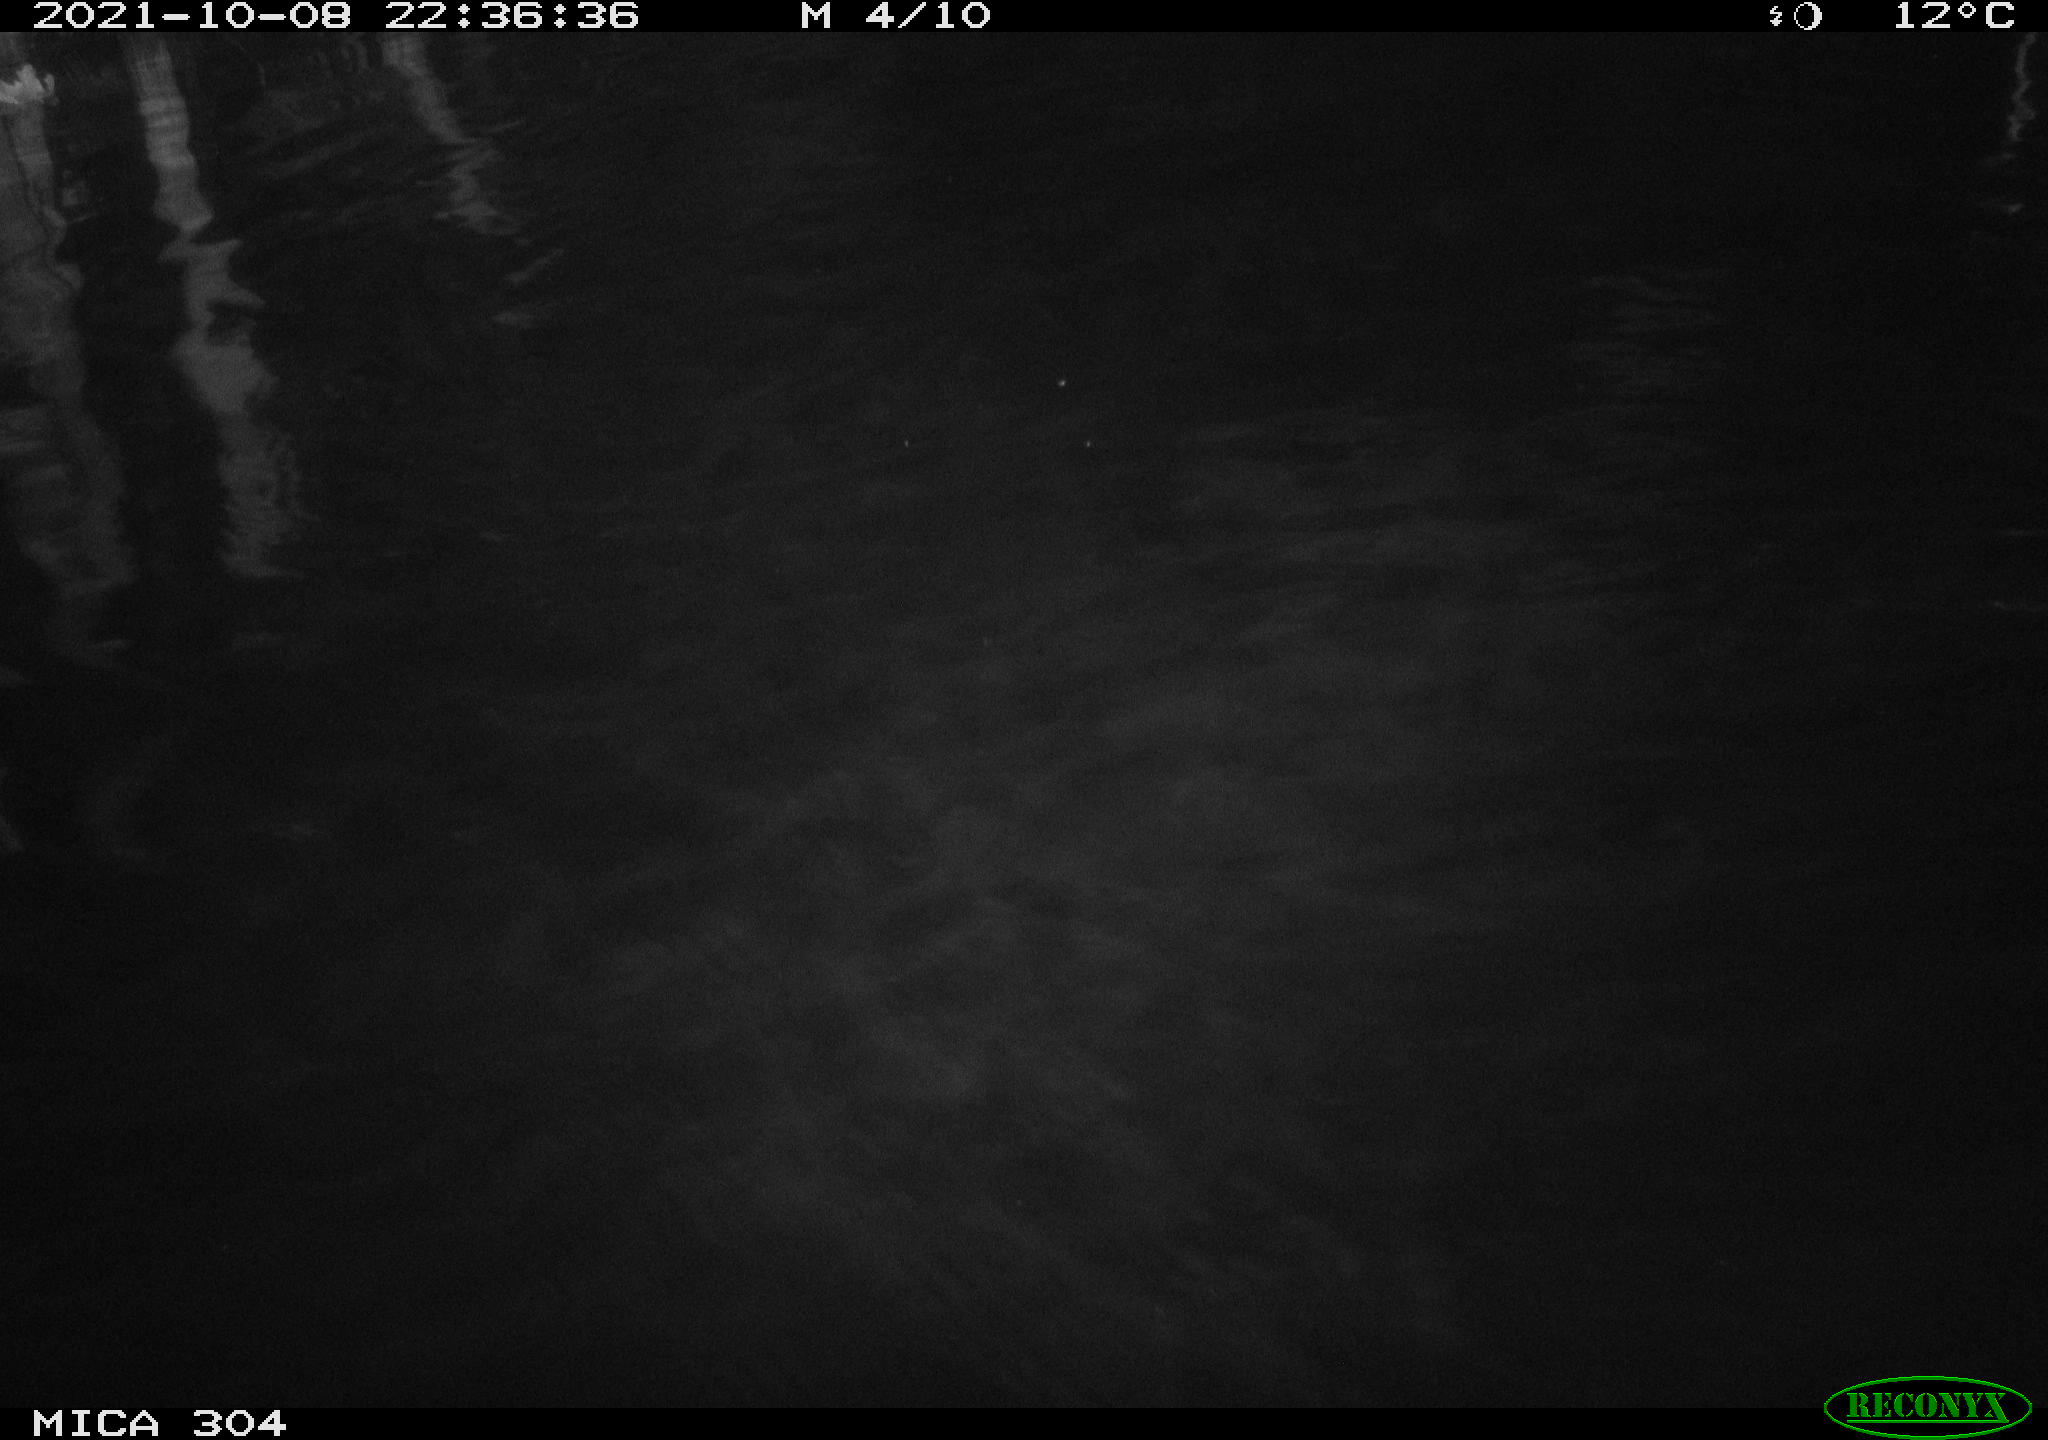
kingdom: Animalia
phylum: Chordata
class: Mammalia
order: Rodentia
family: Cricetidae
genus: Ondatra
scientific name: Ondatra zibethicus
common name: Muskrat
